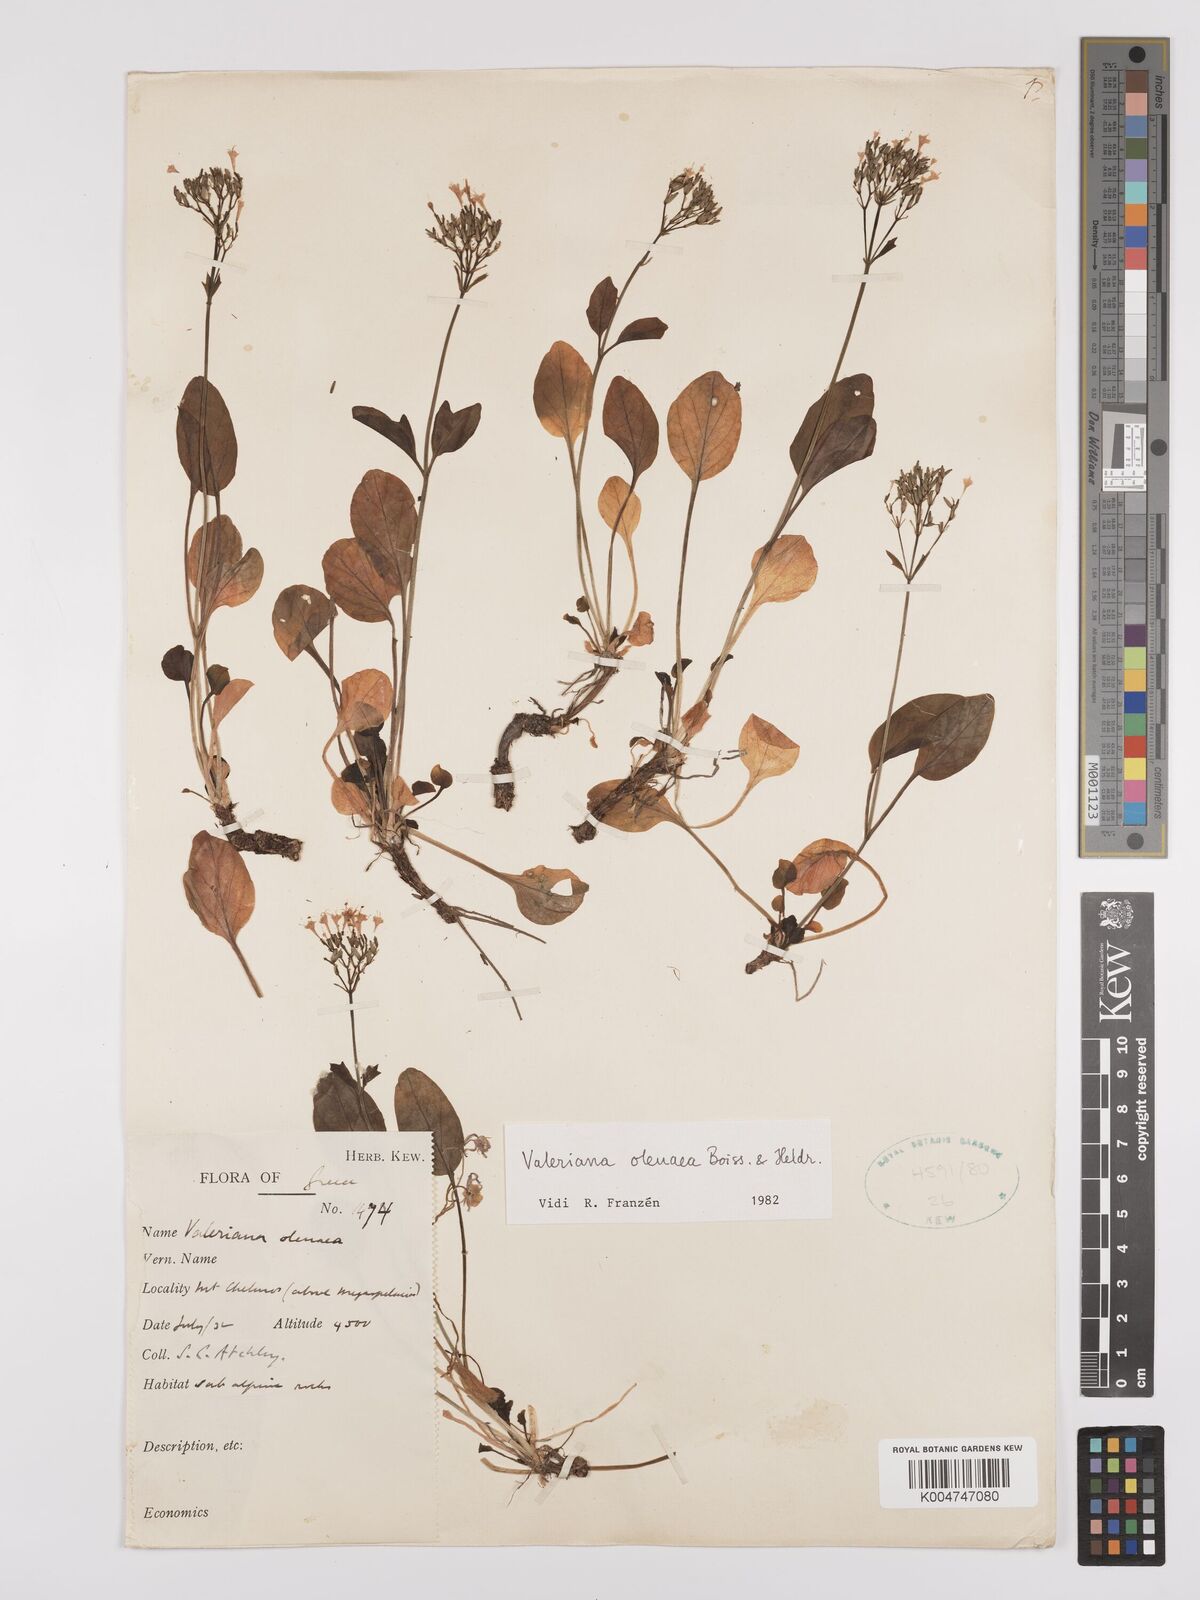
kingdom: Plantae
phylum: Tracheophyta
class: Magnoliopsida
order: Dipsacales
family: Caprifoliaceae
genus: Valeriana
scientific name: Valeriana olenaea
